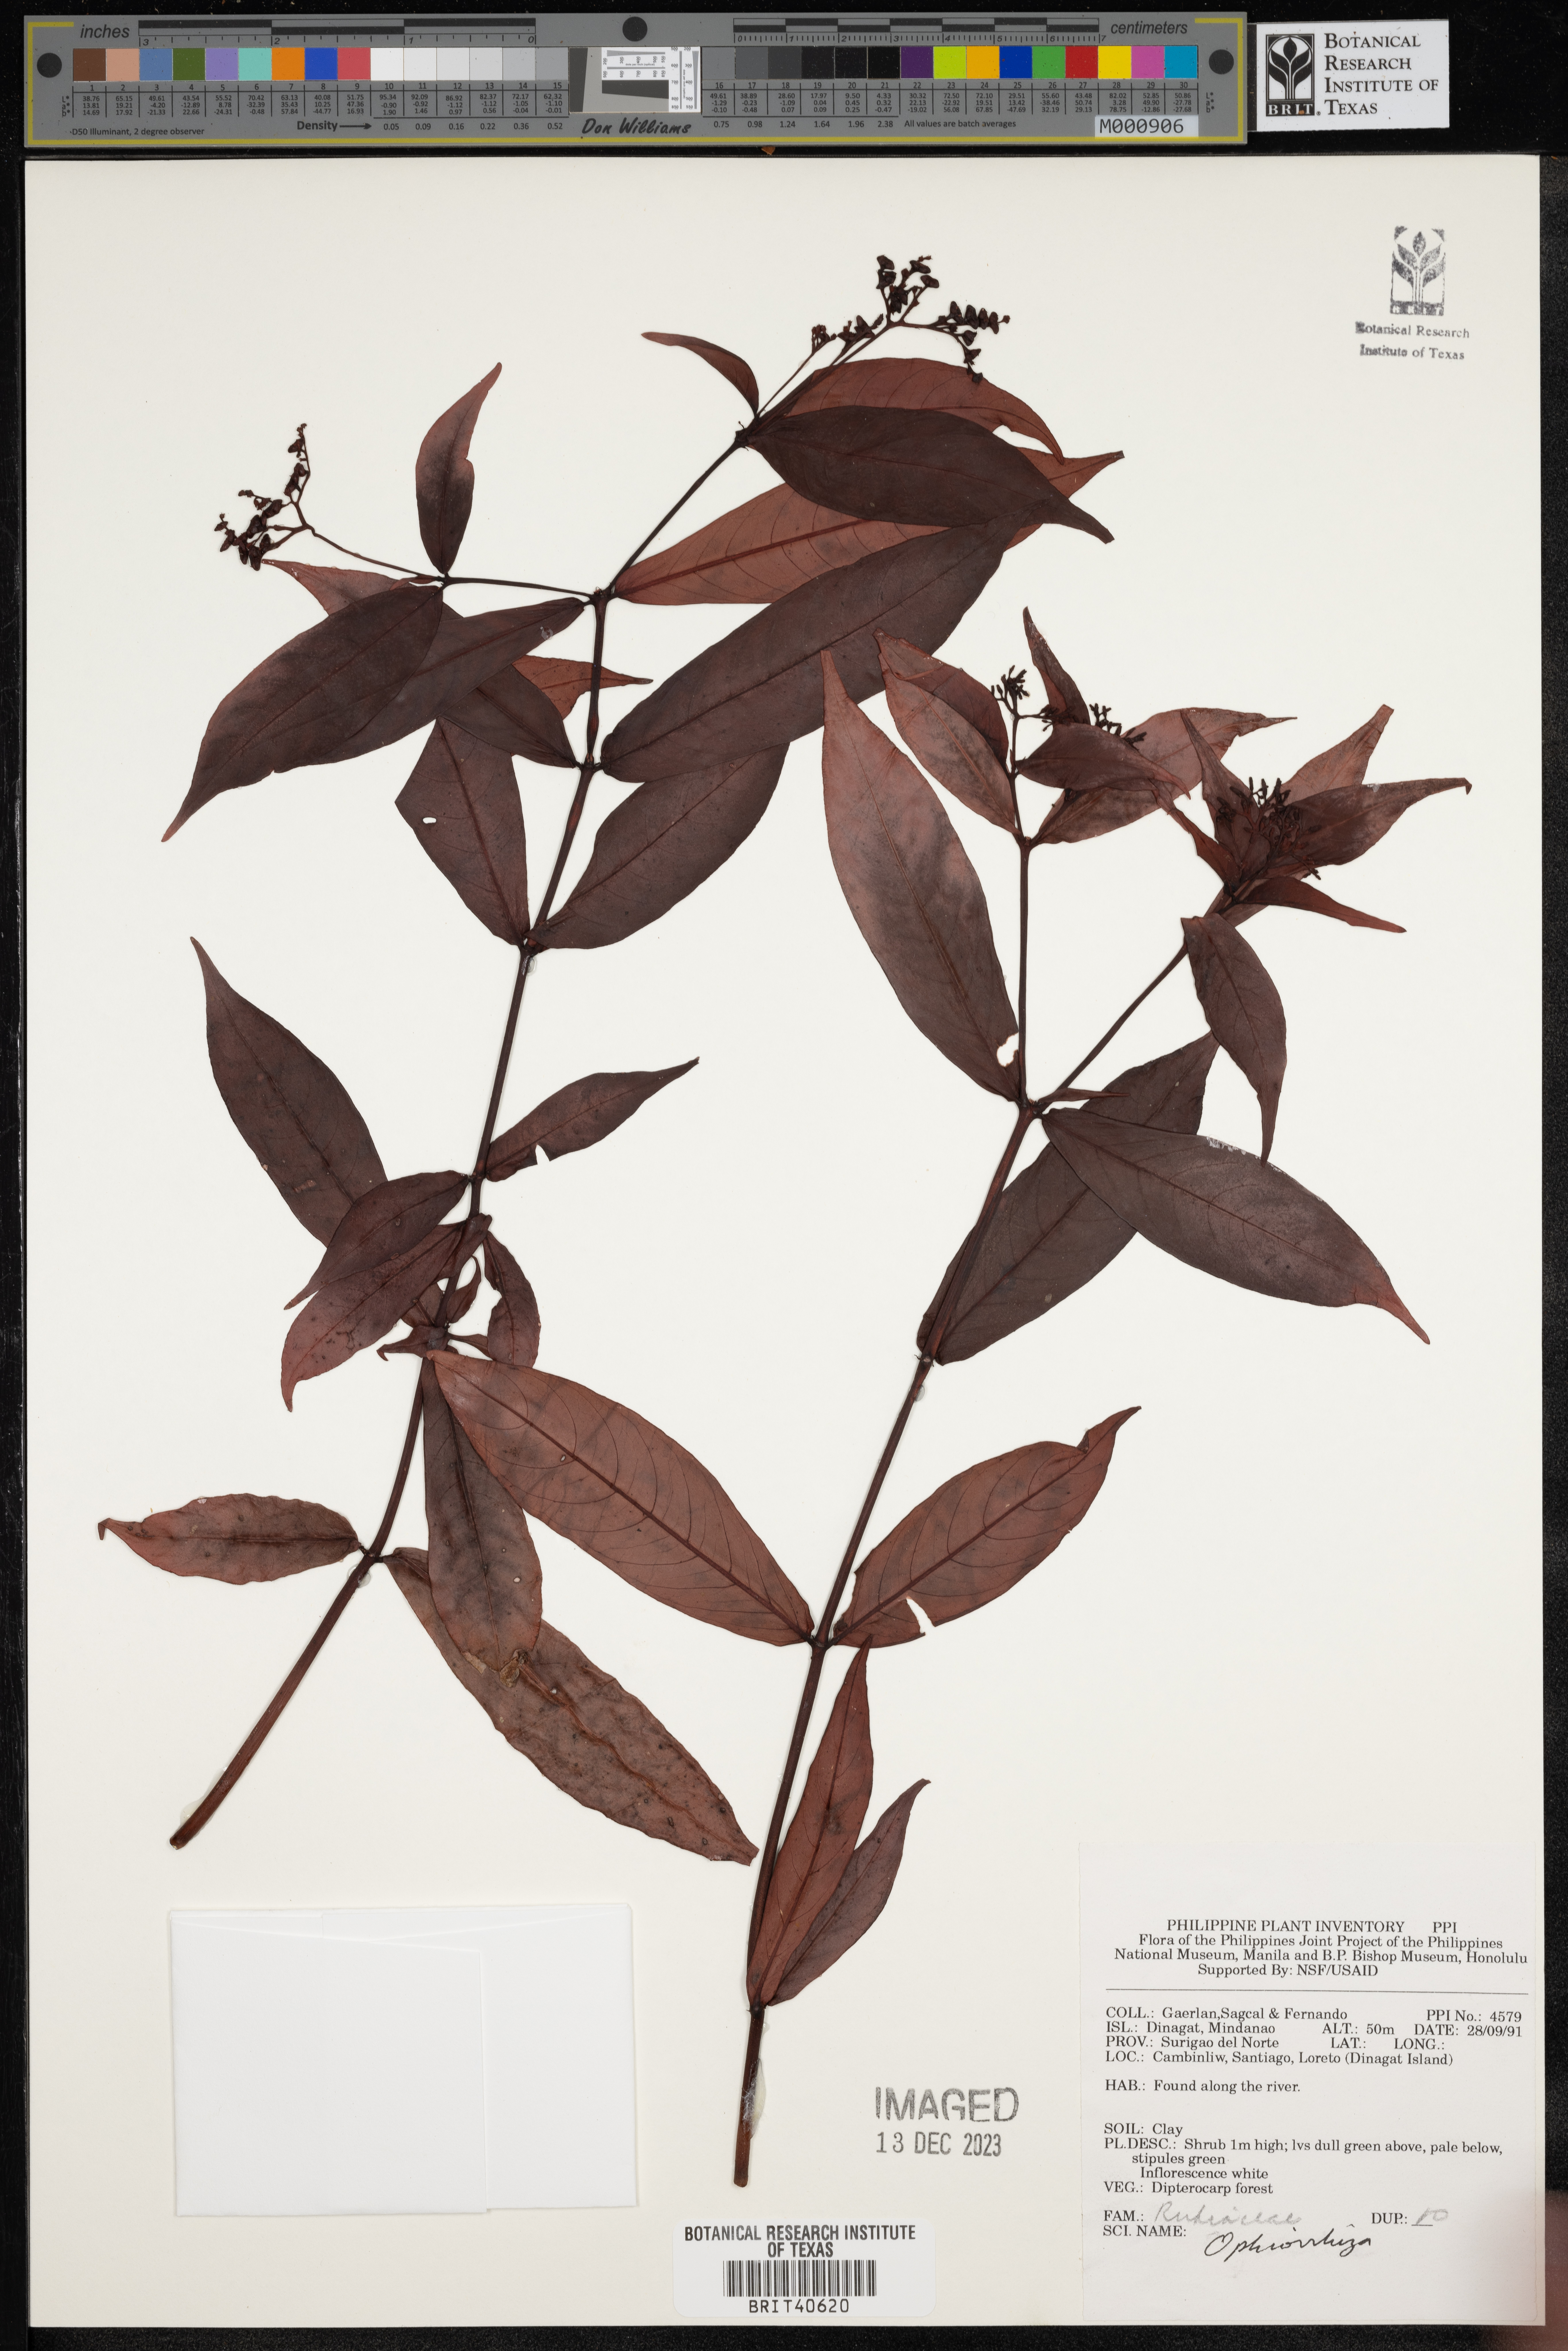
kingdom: Plantae
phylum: Tracheophyta
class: Magnoliopsida
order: Gentianales
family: Rubiaceae
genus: Ophiorrhiza
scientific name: Ophiorrhiza
